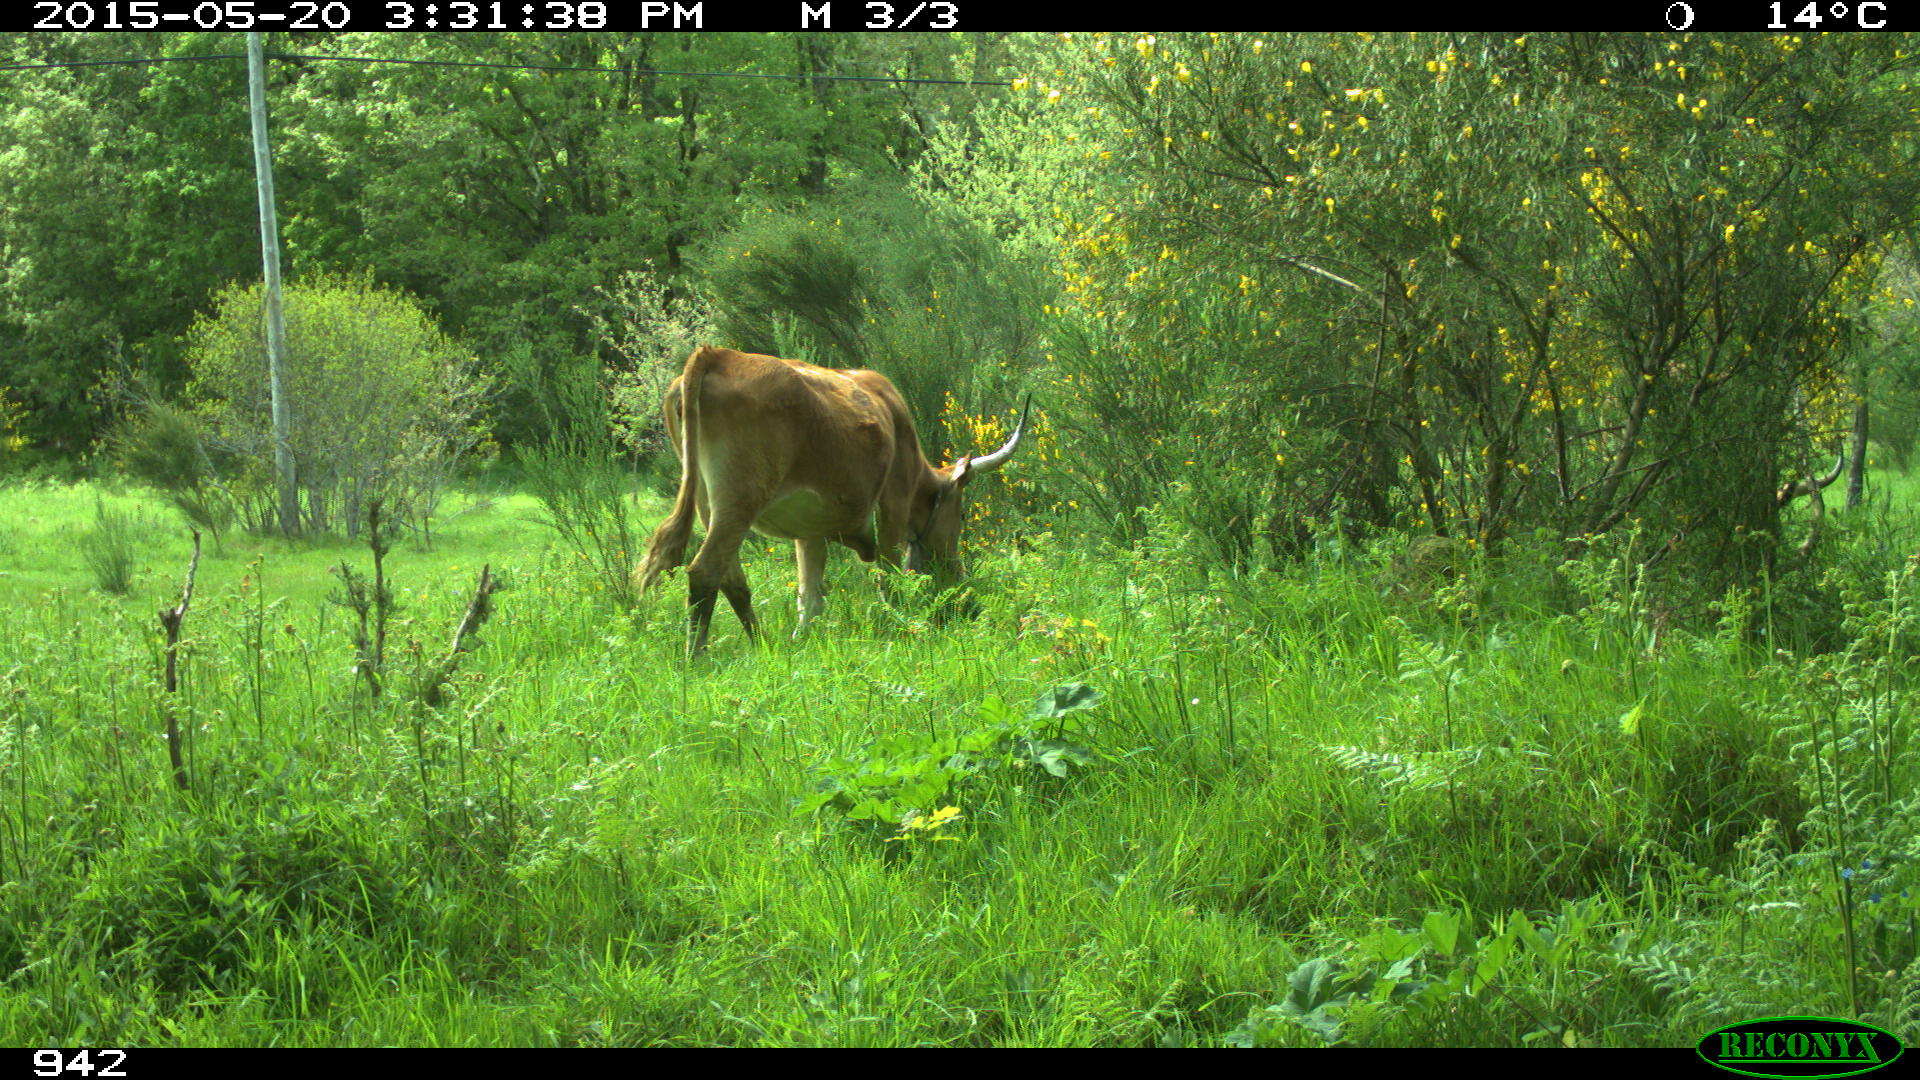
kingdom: Animalia
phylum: Chordata
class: Mammalia
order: Perissodactyla
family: Equidae
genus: Equus
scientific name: Equus caballus
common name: Horse
